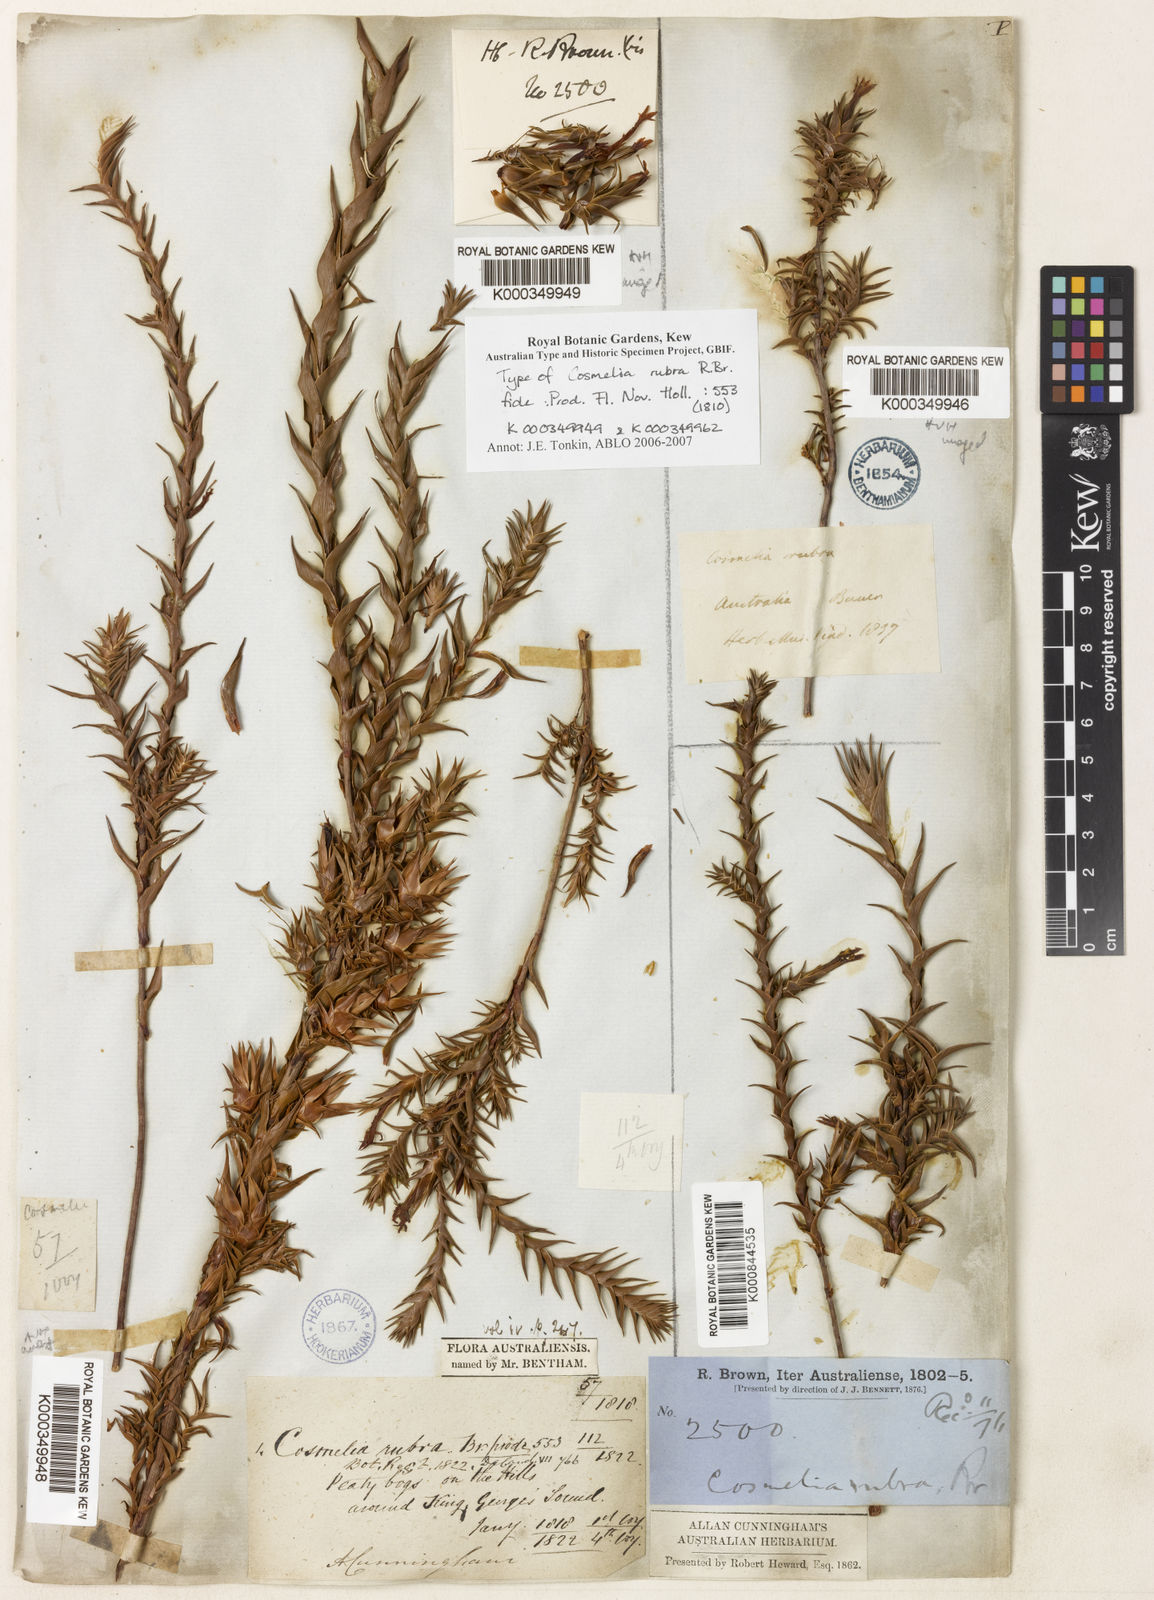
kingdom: Plantae
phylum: Tracheophyta
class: Magnoliopsida
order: Ericales
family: Ericaceae
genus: Cosmelia
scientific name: Cosmelia rubra
